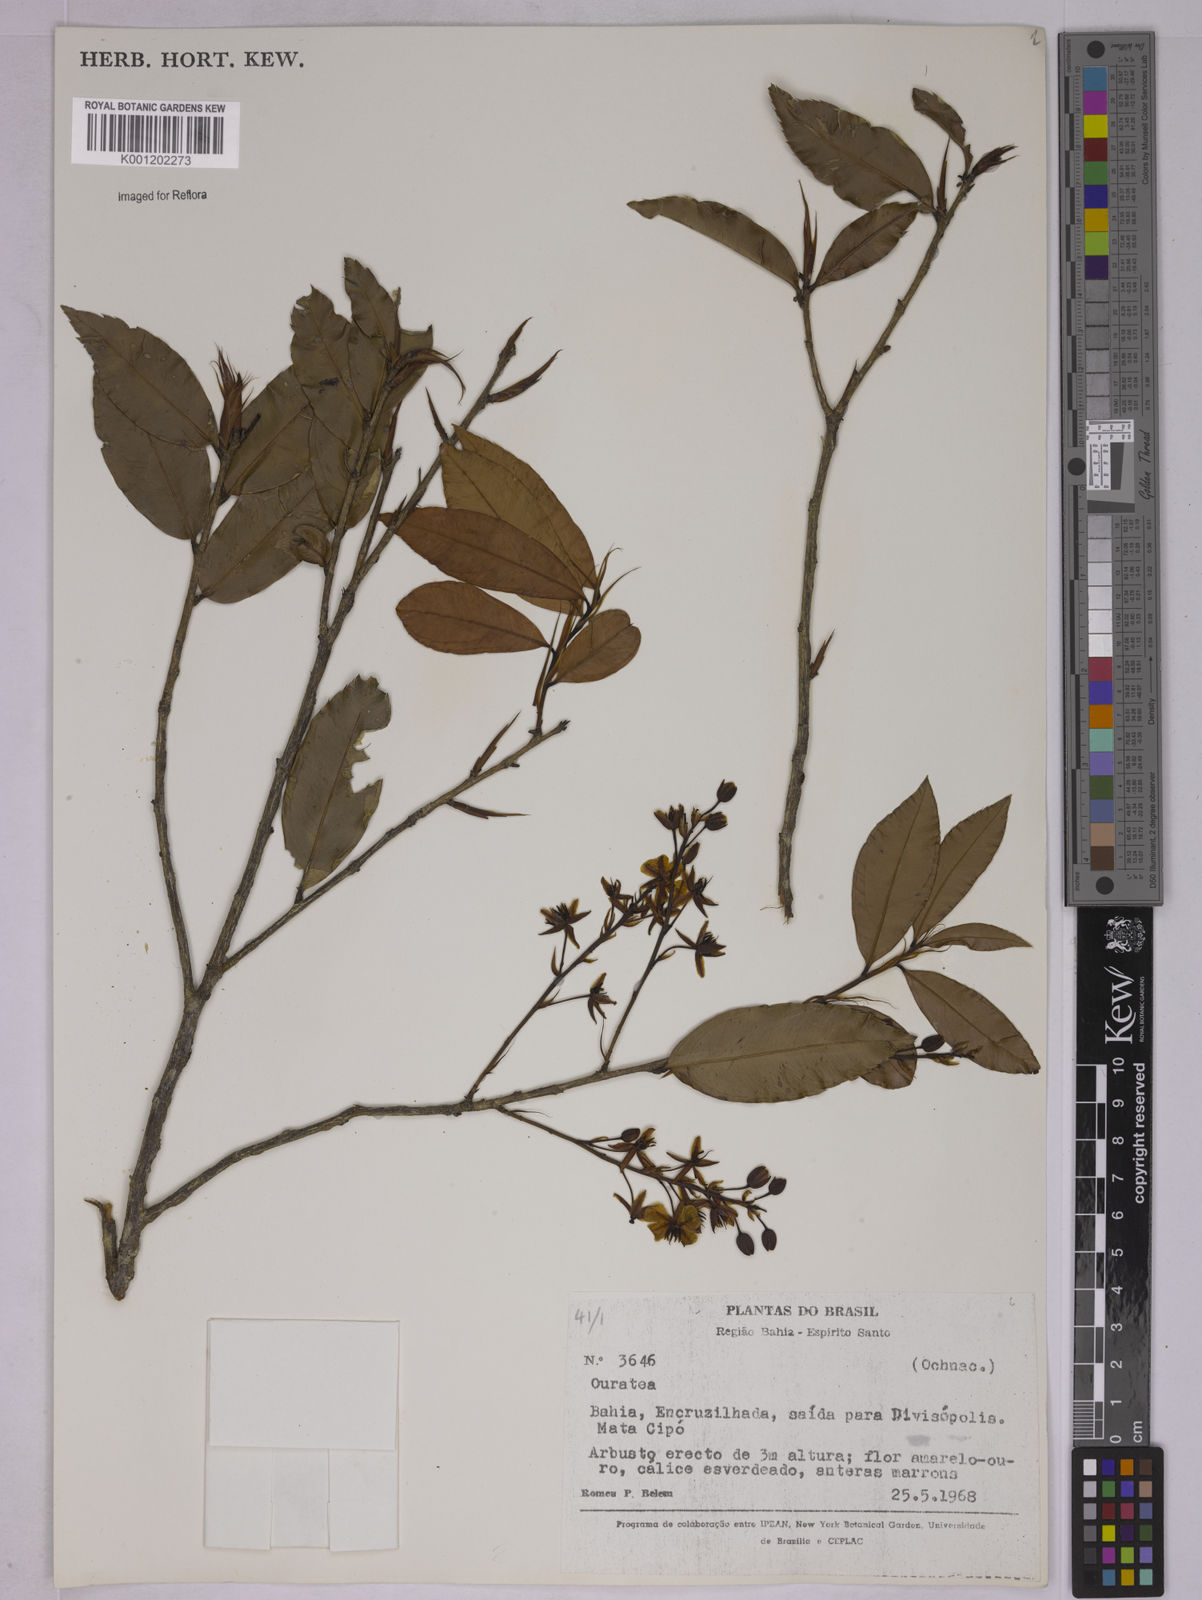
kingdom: Plantae
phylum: Tracheophyta
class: Magnoliopsida
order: Malpighiales
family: Ochnaceae
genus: Ouratea
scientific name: Ouratea
